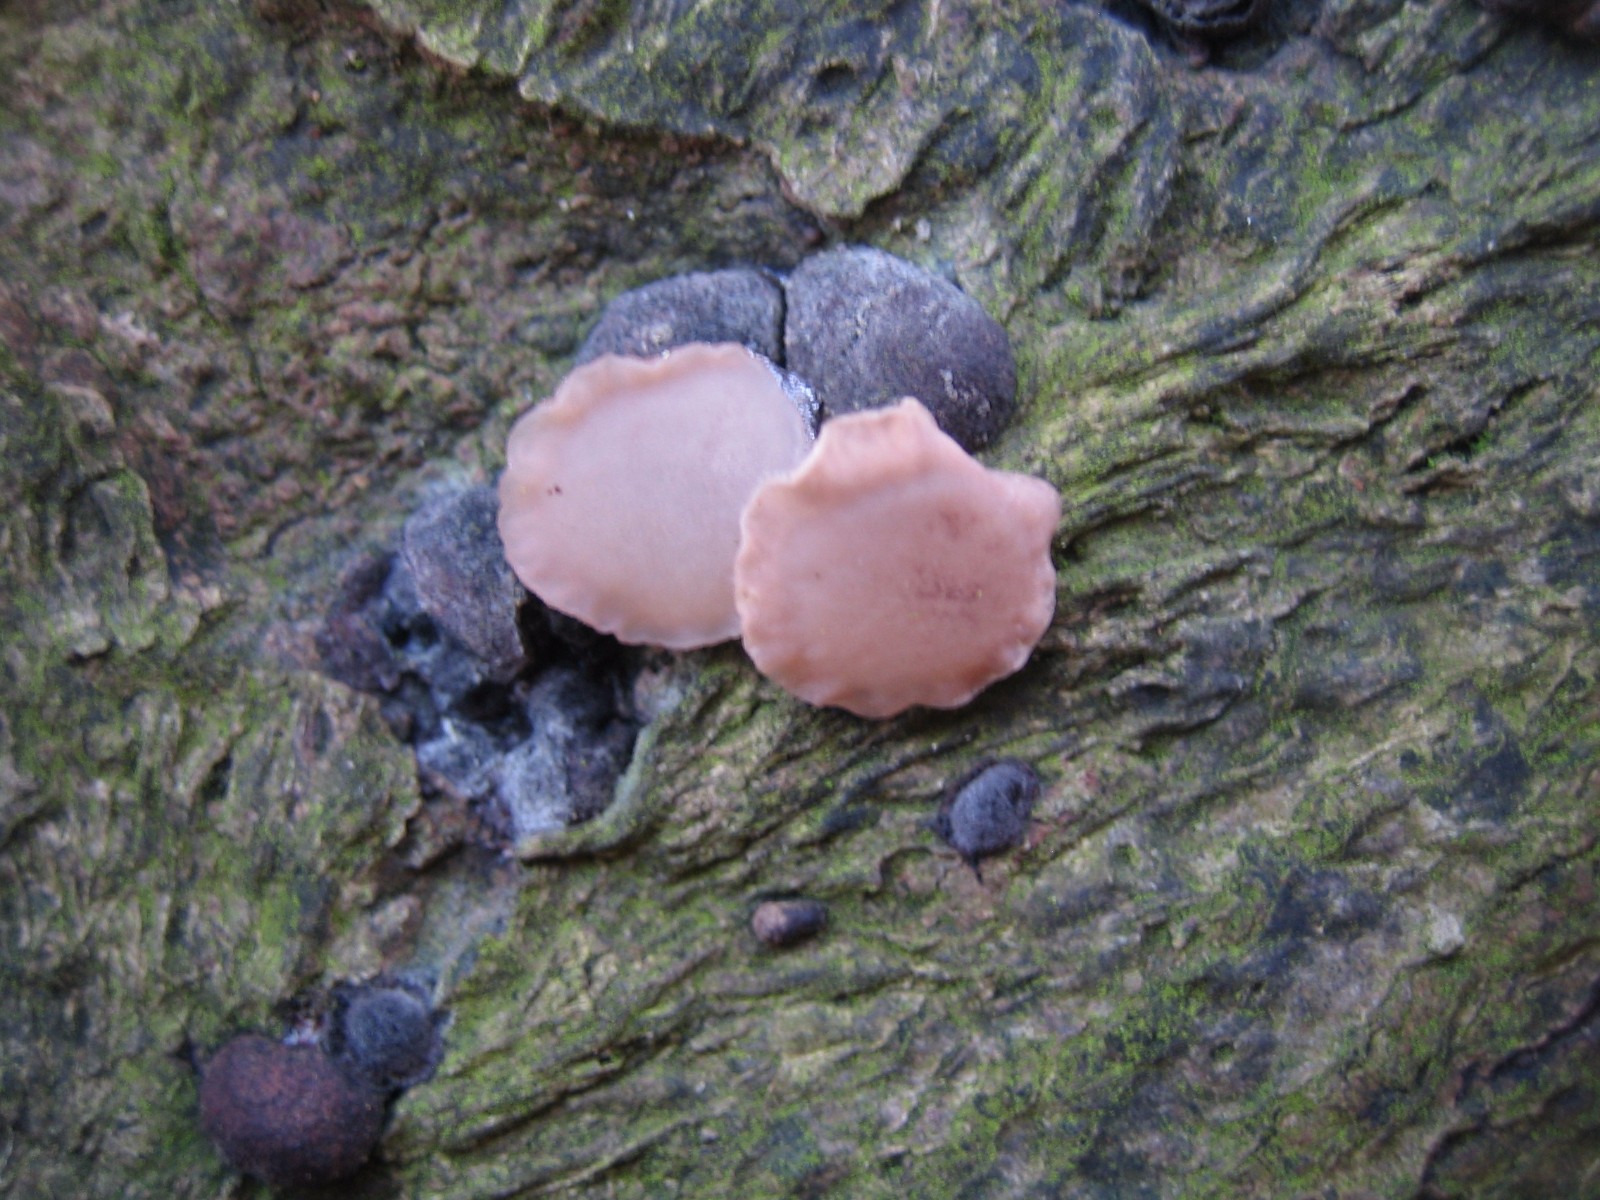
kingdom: Fungi
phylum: Ascomycota
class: Leotiomycetes
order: Helotiales
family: Gelatinodiscaceae
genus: Neobulgaria
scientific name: Neobulgaria pura
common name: bleg bævreskive
